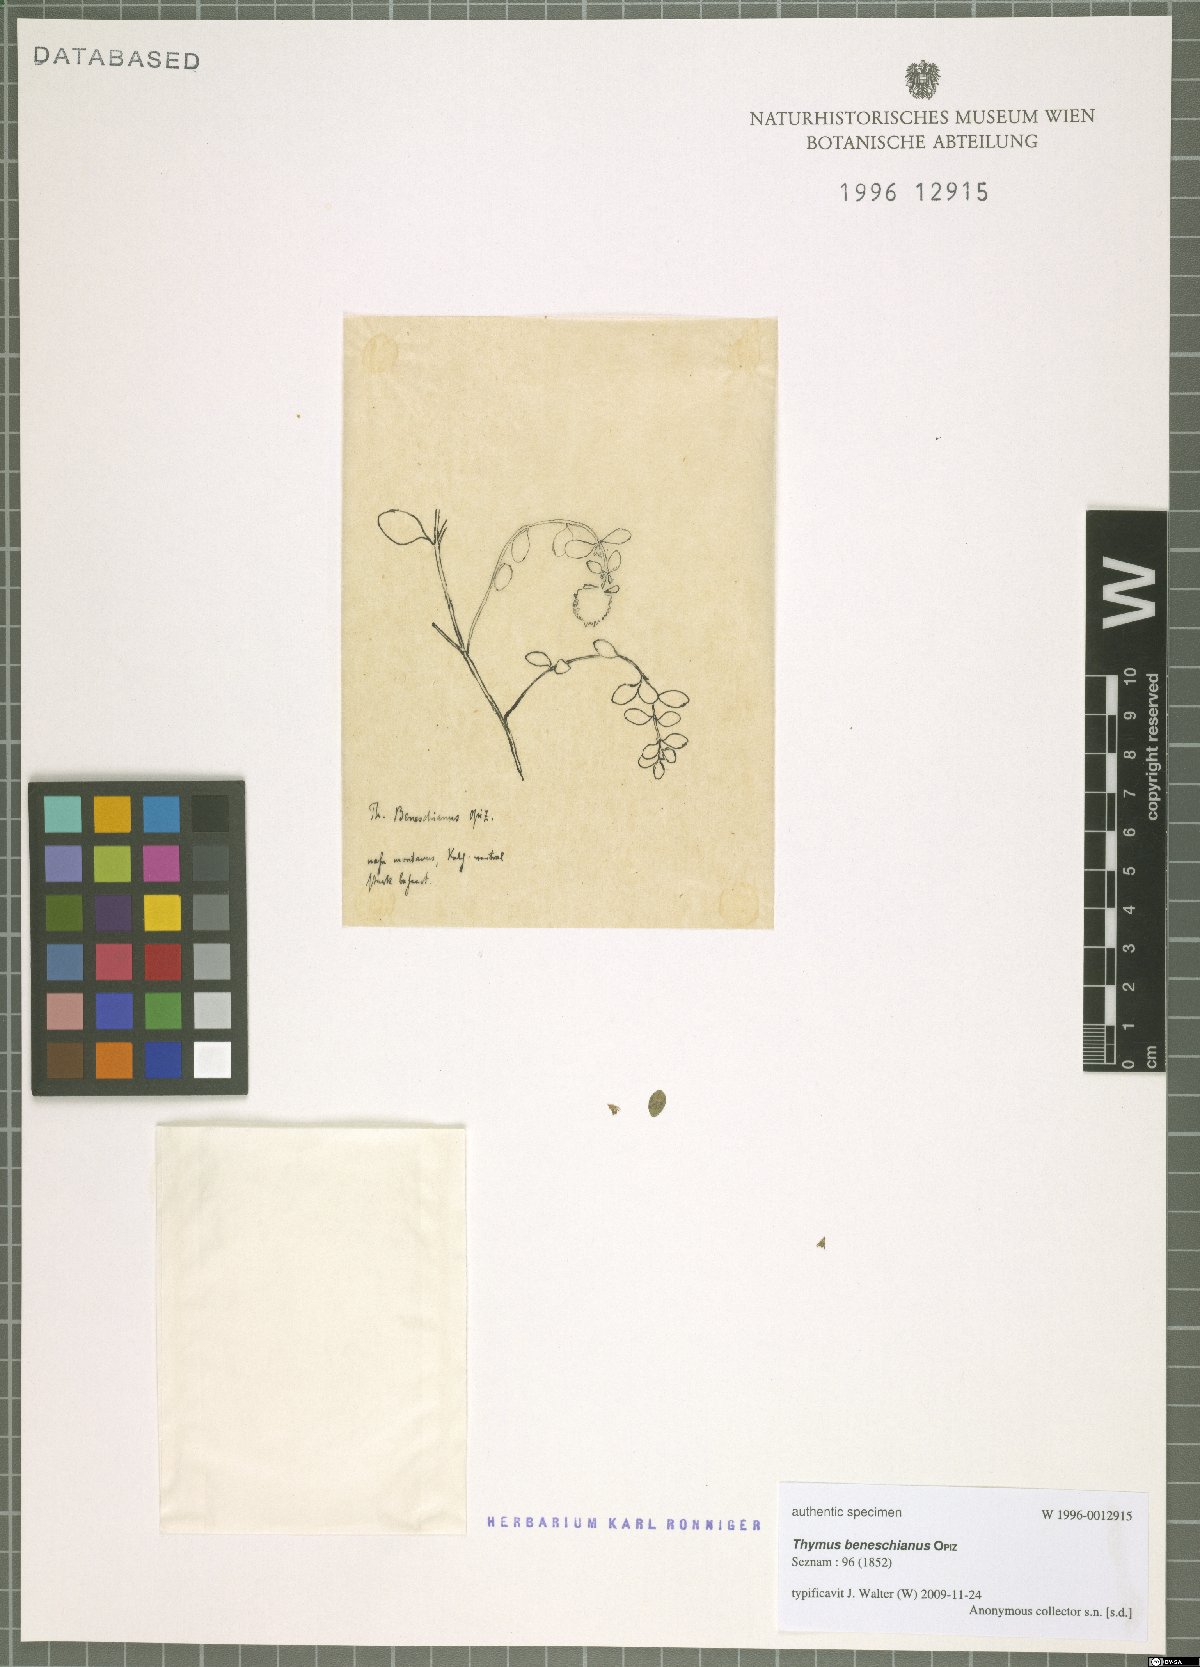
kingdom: Plantae
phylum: Tracheophyta
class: Magnoliopsida
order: Lamiales
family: Lamiaceae
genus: Thymus
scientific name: Thymus serpyllum
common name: Breckland thyme
